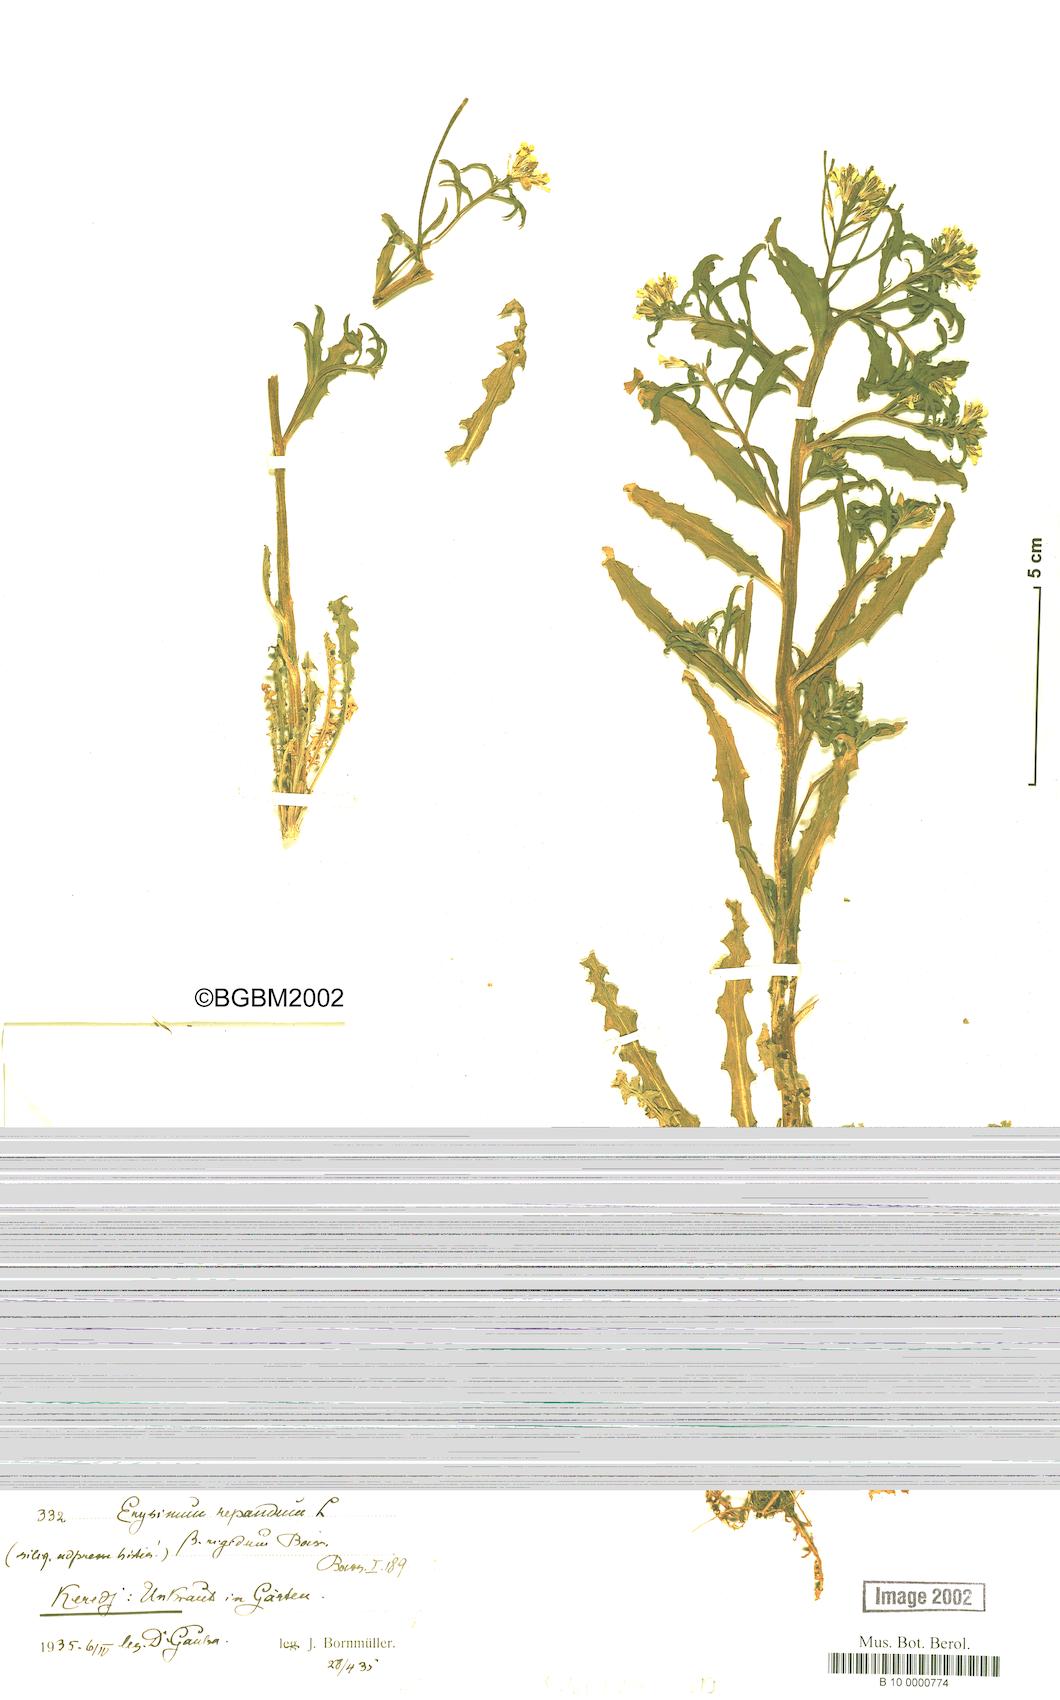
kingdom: Plantae
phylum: Tracheophyta
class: Magnoliopsida
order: Brassicales
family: Brassicaceae
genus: Erysimum
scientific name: Erysimum repandum
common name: Spreading wallflower
